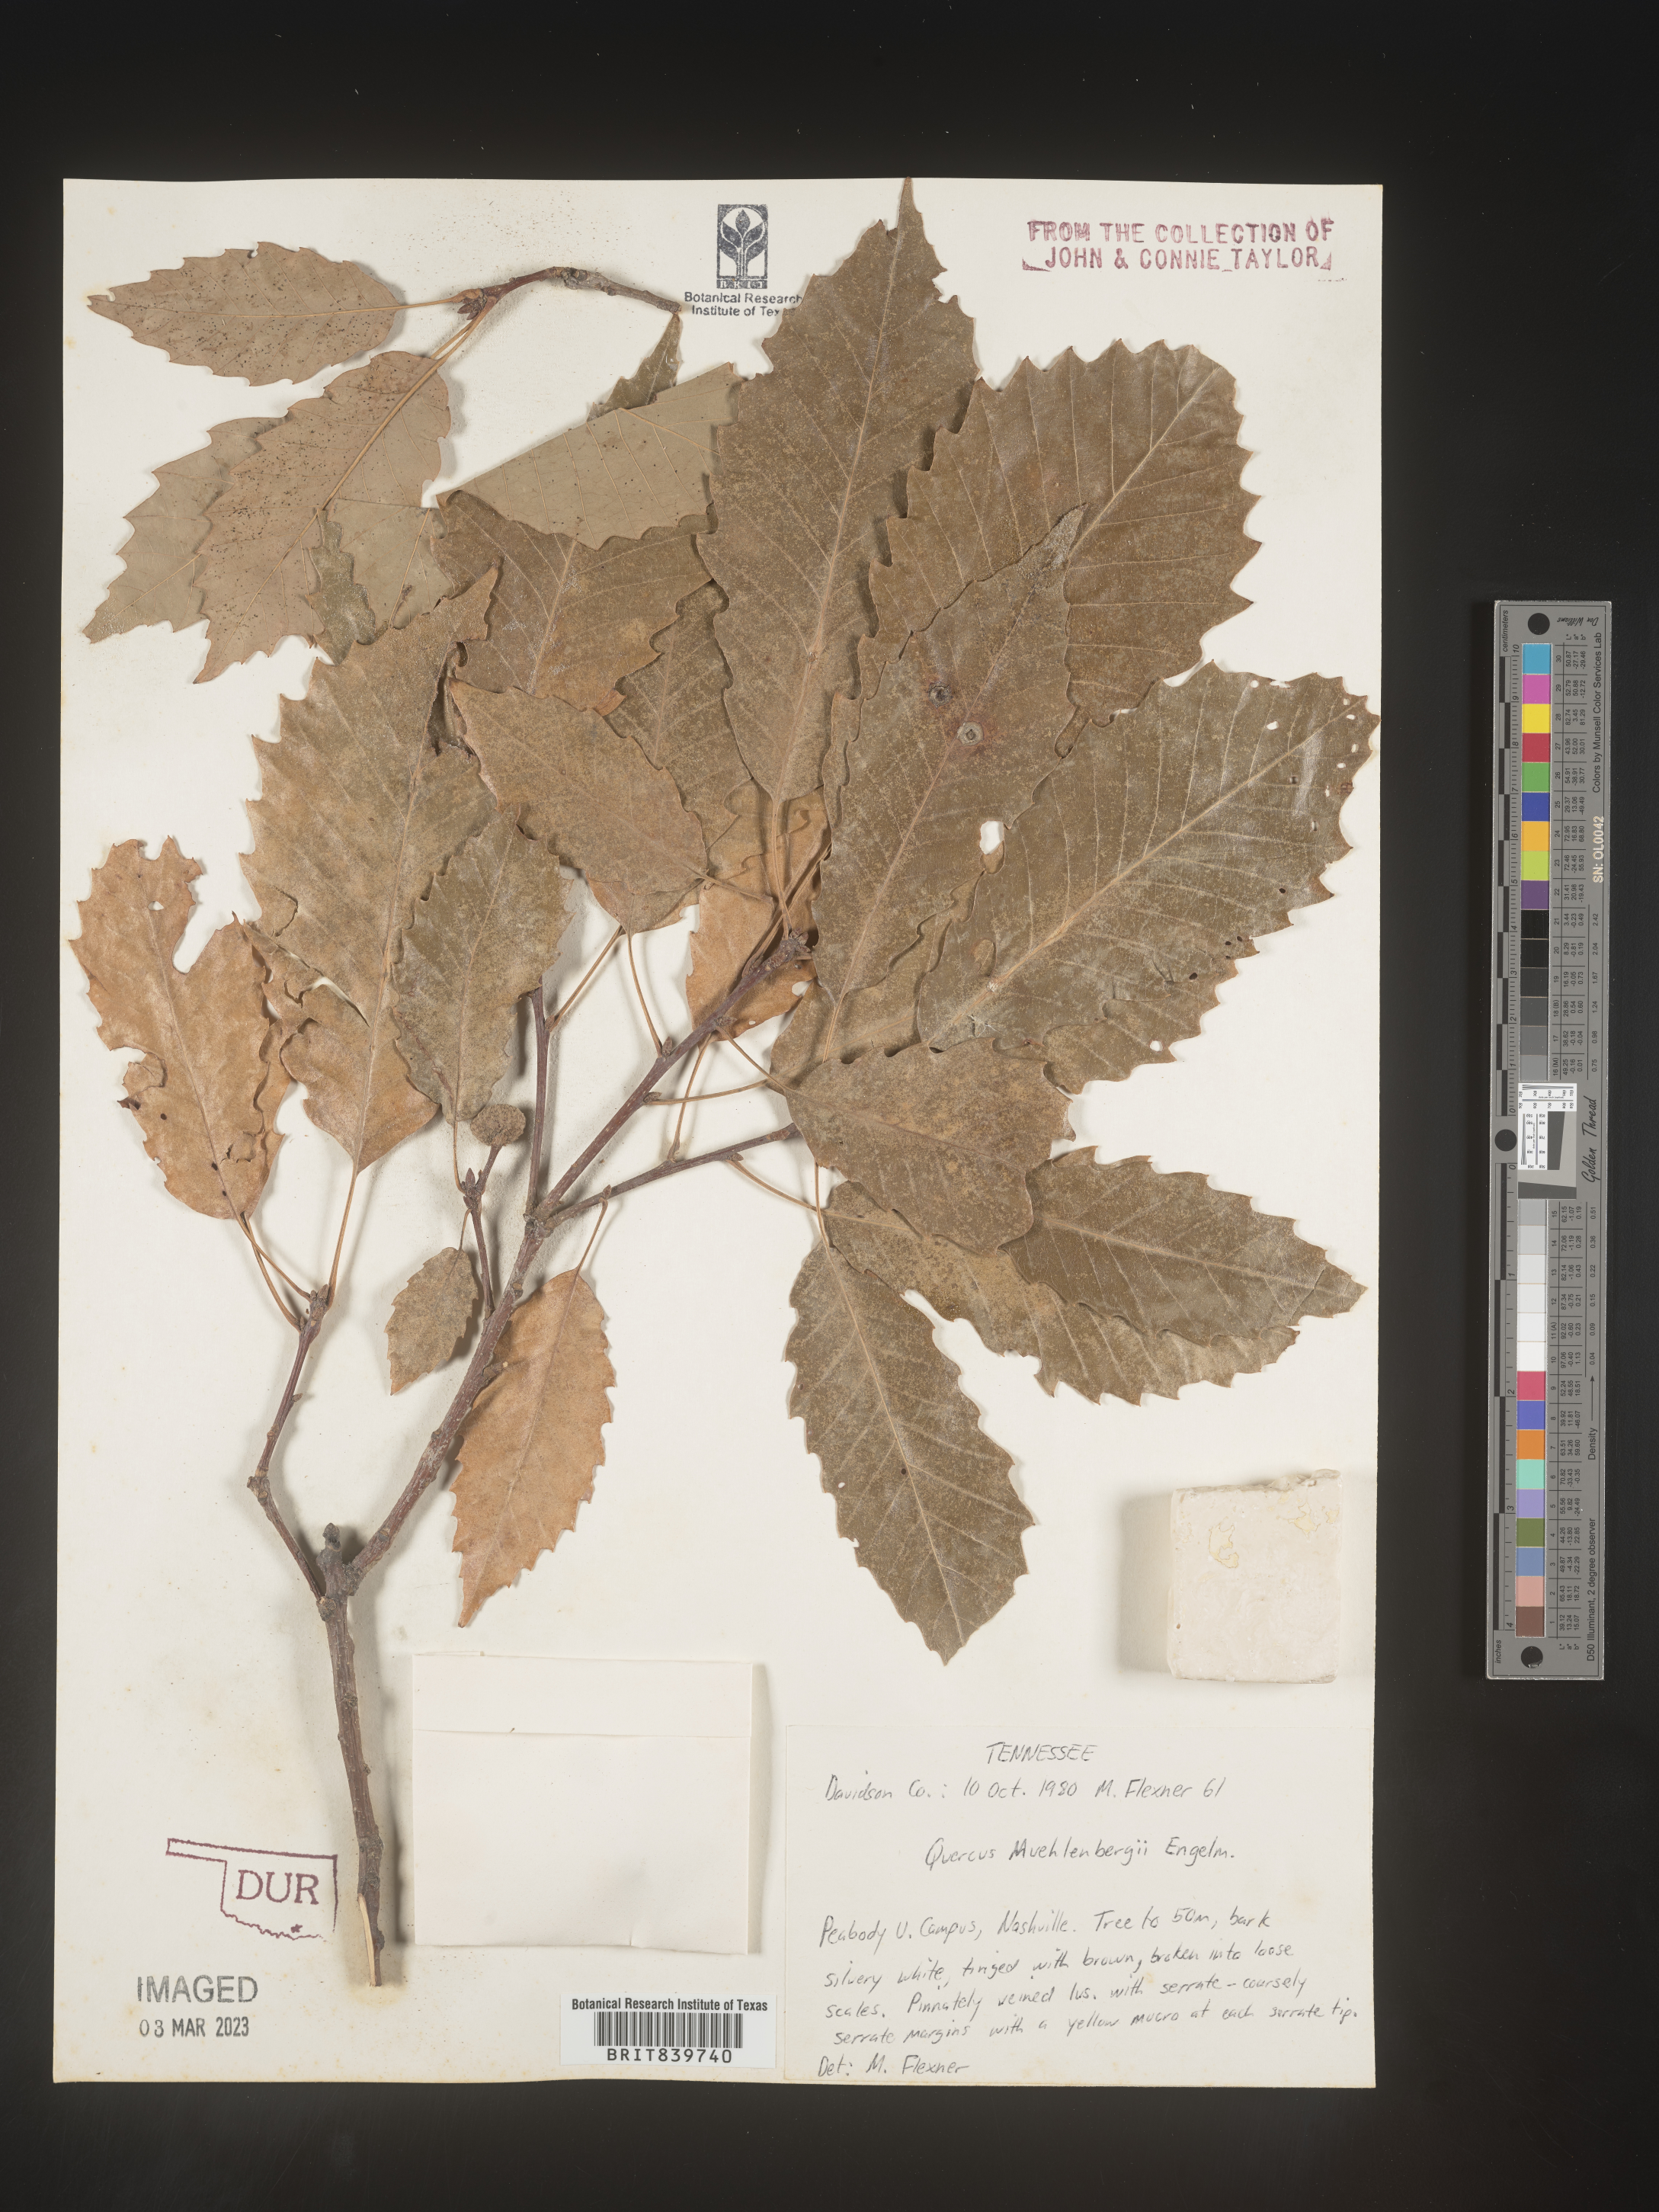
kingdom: Plantae
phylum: Tracheophyta
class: Magnoliopsida
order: Fagales
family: Fagaceae
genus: Quercus
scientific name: Quercus muehlenbergii
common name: Chinkapin oak
